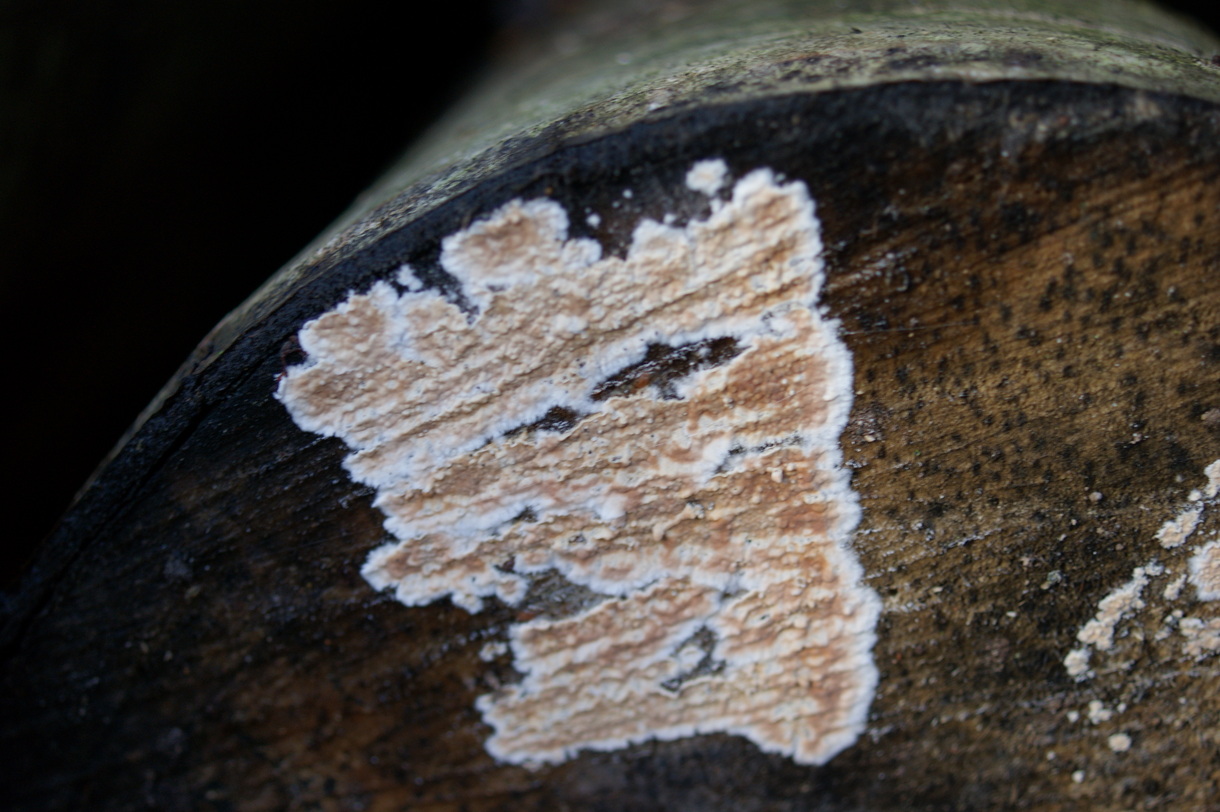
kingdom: Fungi
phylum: Basidiomycota
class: Agaricomycetes
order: Agaricales
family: Physalacriaceae
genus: Cylindrobasidium
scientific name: Cylindrobasidium evolvens
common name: sprækkehinde
